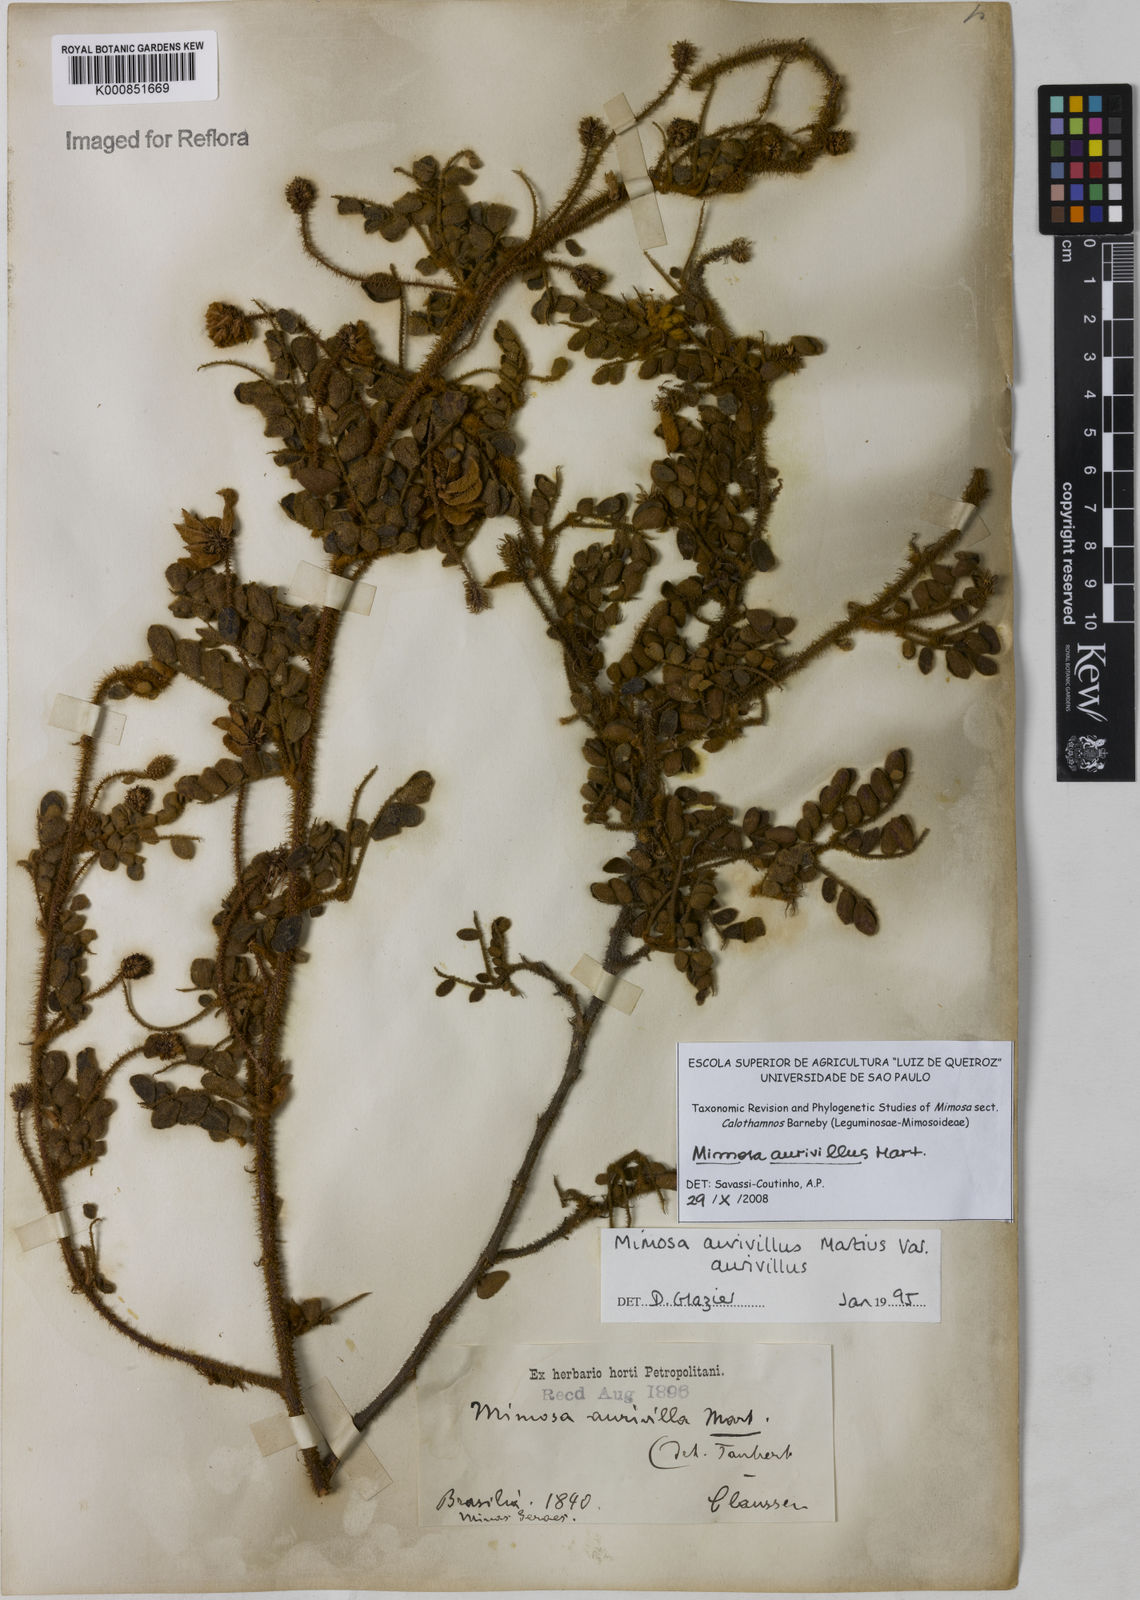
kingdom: Plantae
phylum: Tracheophyta
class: Magnoliopsida
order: Fabales
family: Fabaceae
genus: Mimosa
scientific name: Mimosa aurivillus
